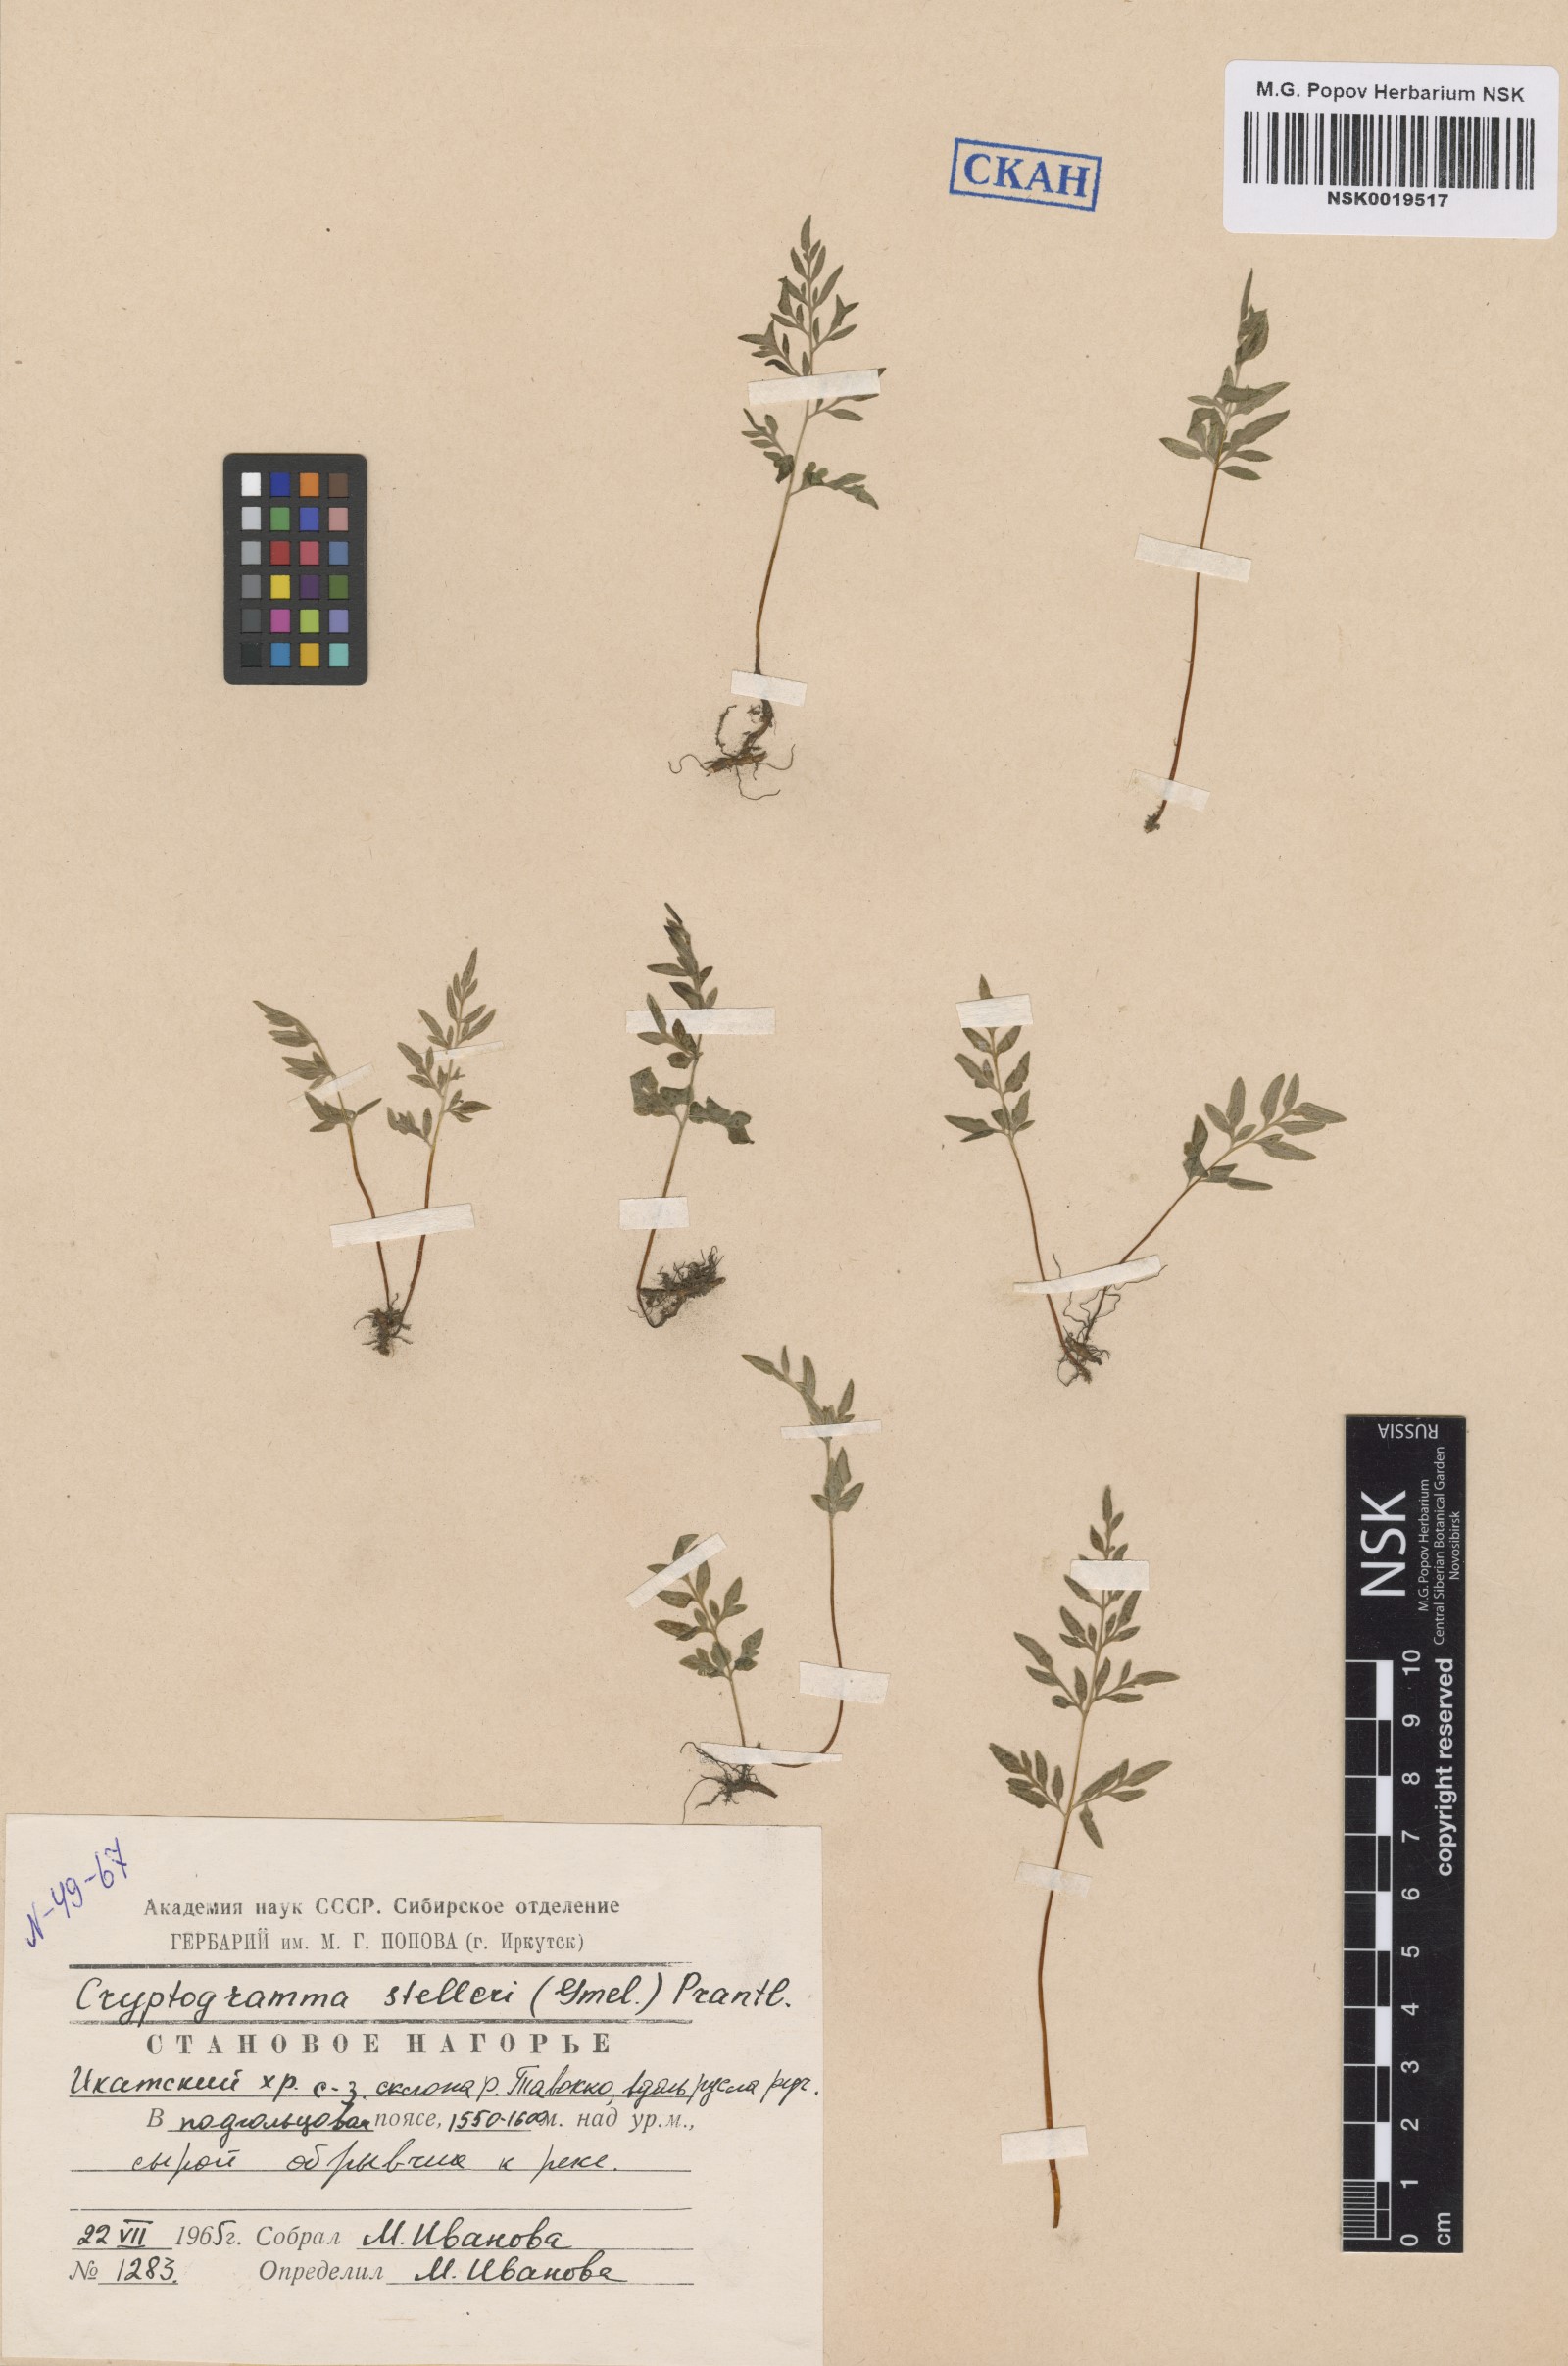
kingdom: Plantae
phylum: Tracheophyta
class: Polypodiopsida
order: Polypodiales
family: Pteridaceae
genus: Cryptogramma
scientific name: Cryptogramma stelleri
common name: Cliff-brake
